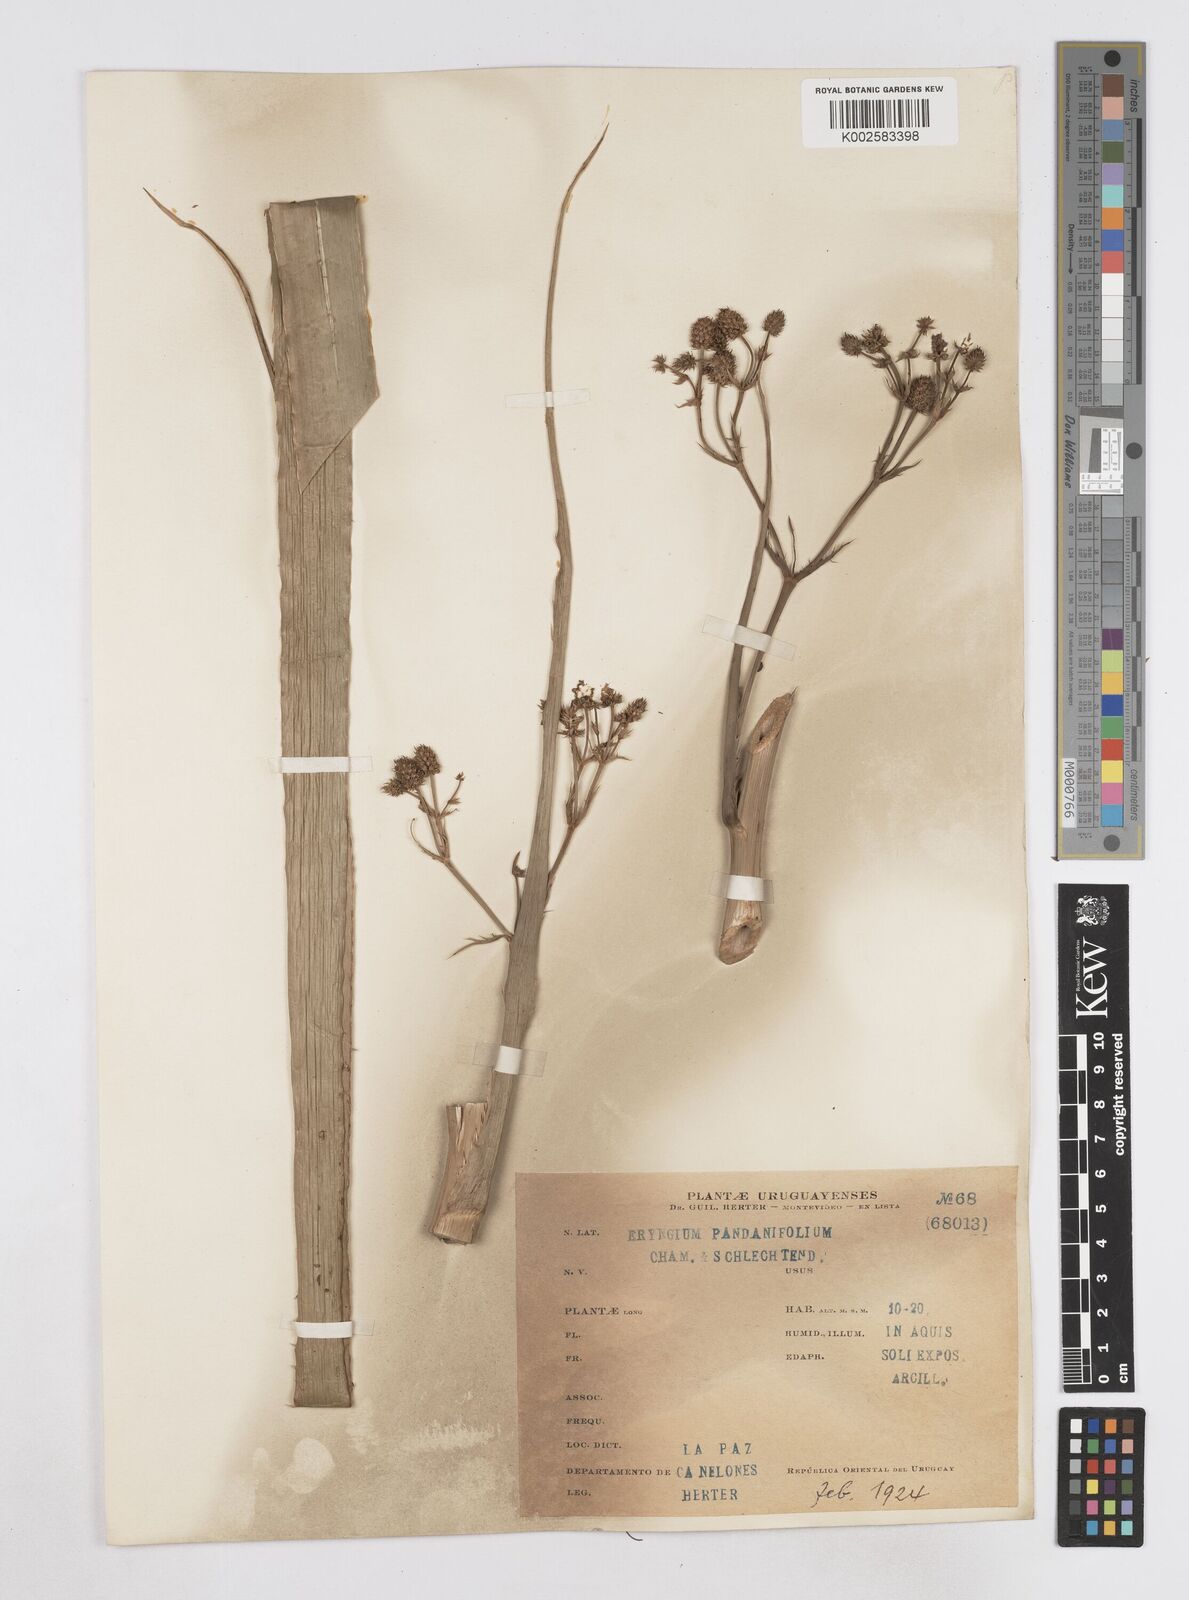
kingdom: Plantae
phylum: Tracheophyta
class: Magnoliopsida
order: Apiales
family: Apiaceae
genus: Eryngium
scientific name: Eryngium pandanifolium
